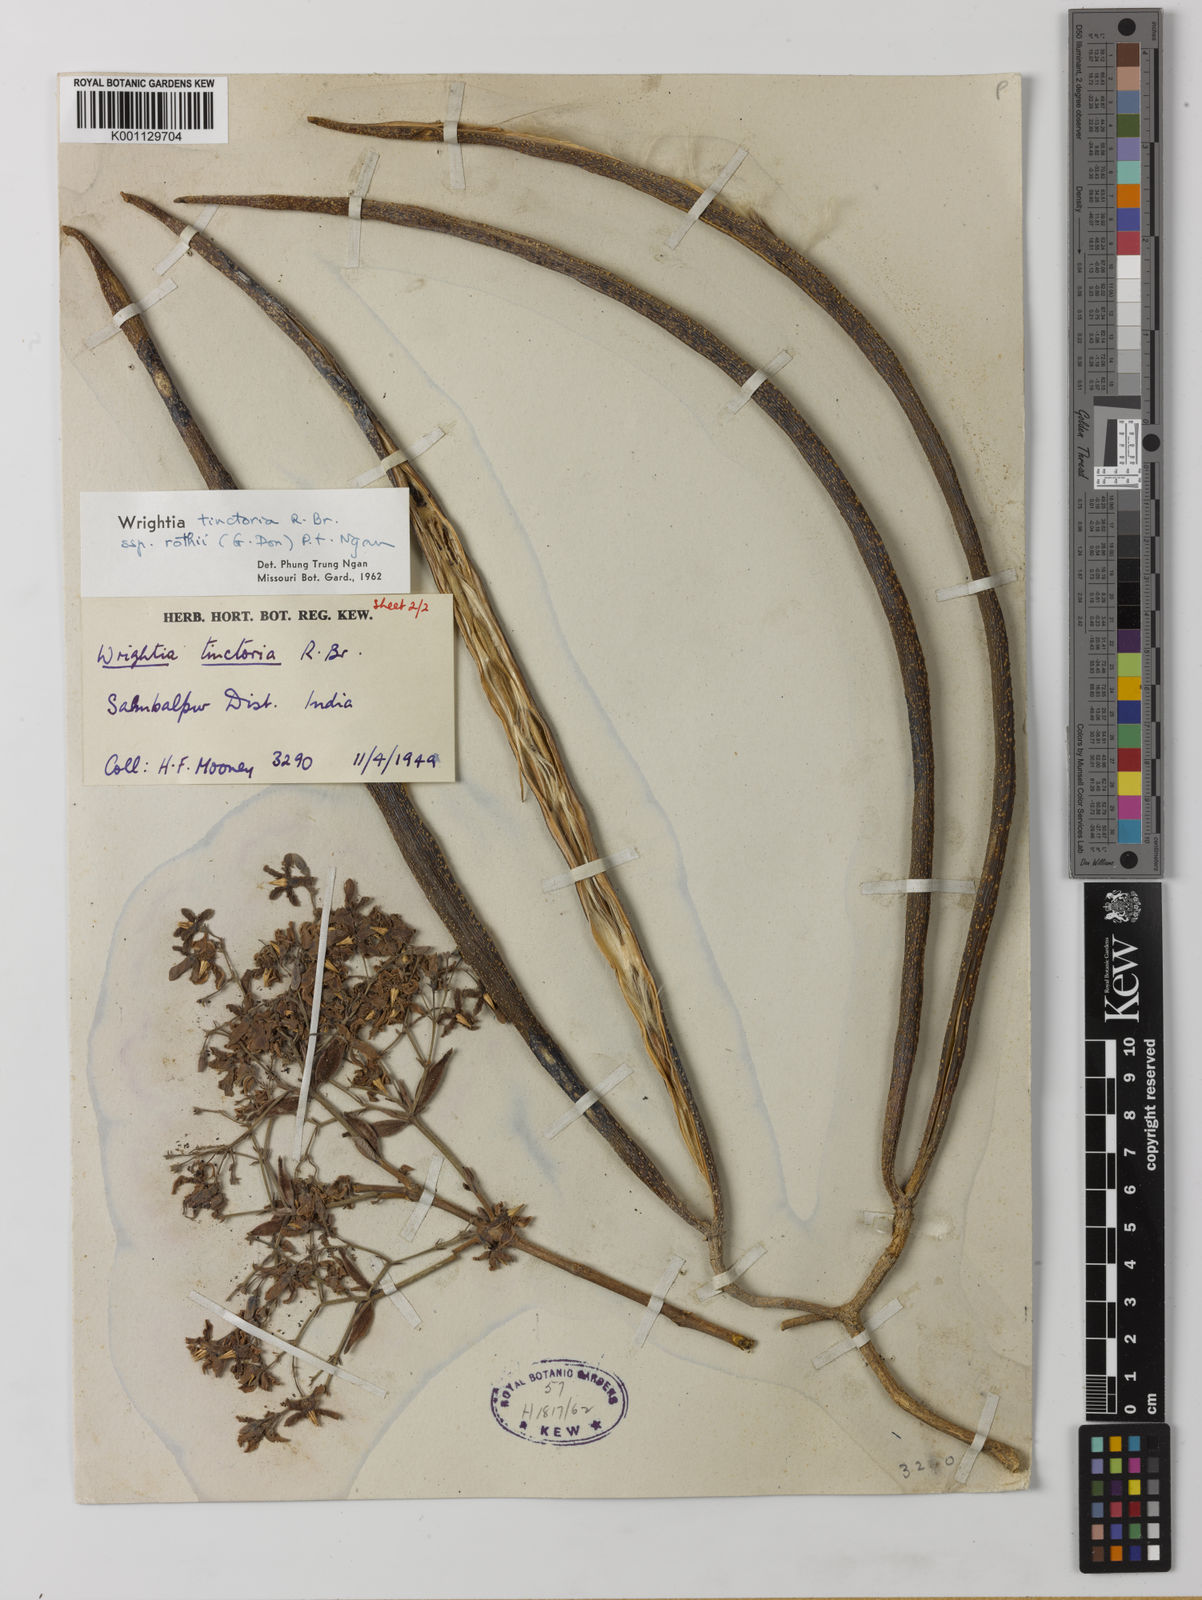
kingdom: Plantae
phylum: Tracheophyta
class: Magnoliopsida
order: Gentianales
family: Apocynaceae
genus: Wrightia
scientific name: Wrightia tinctoria
